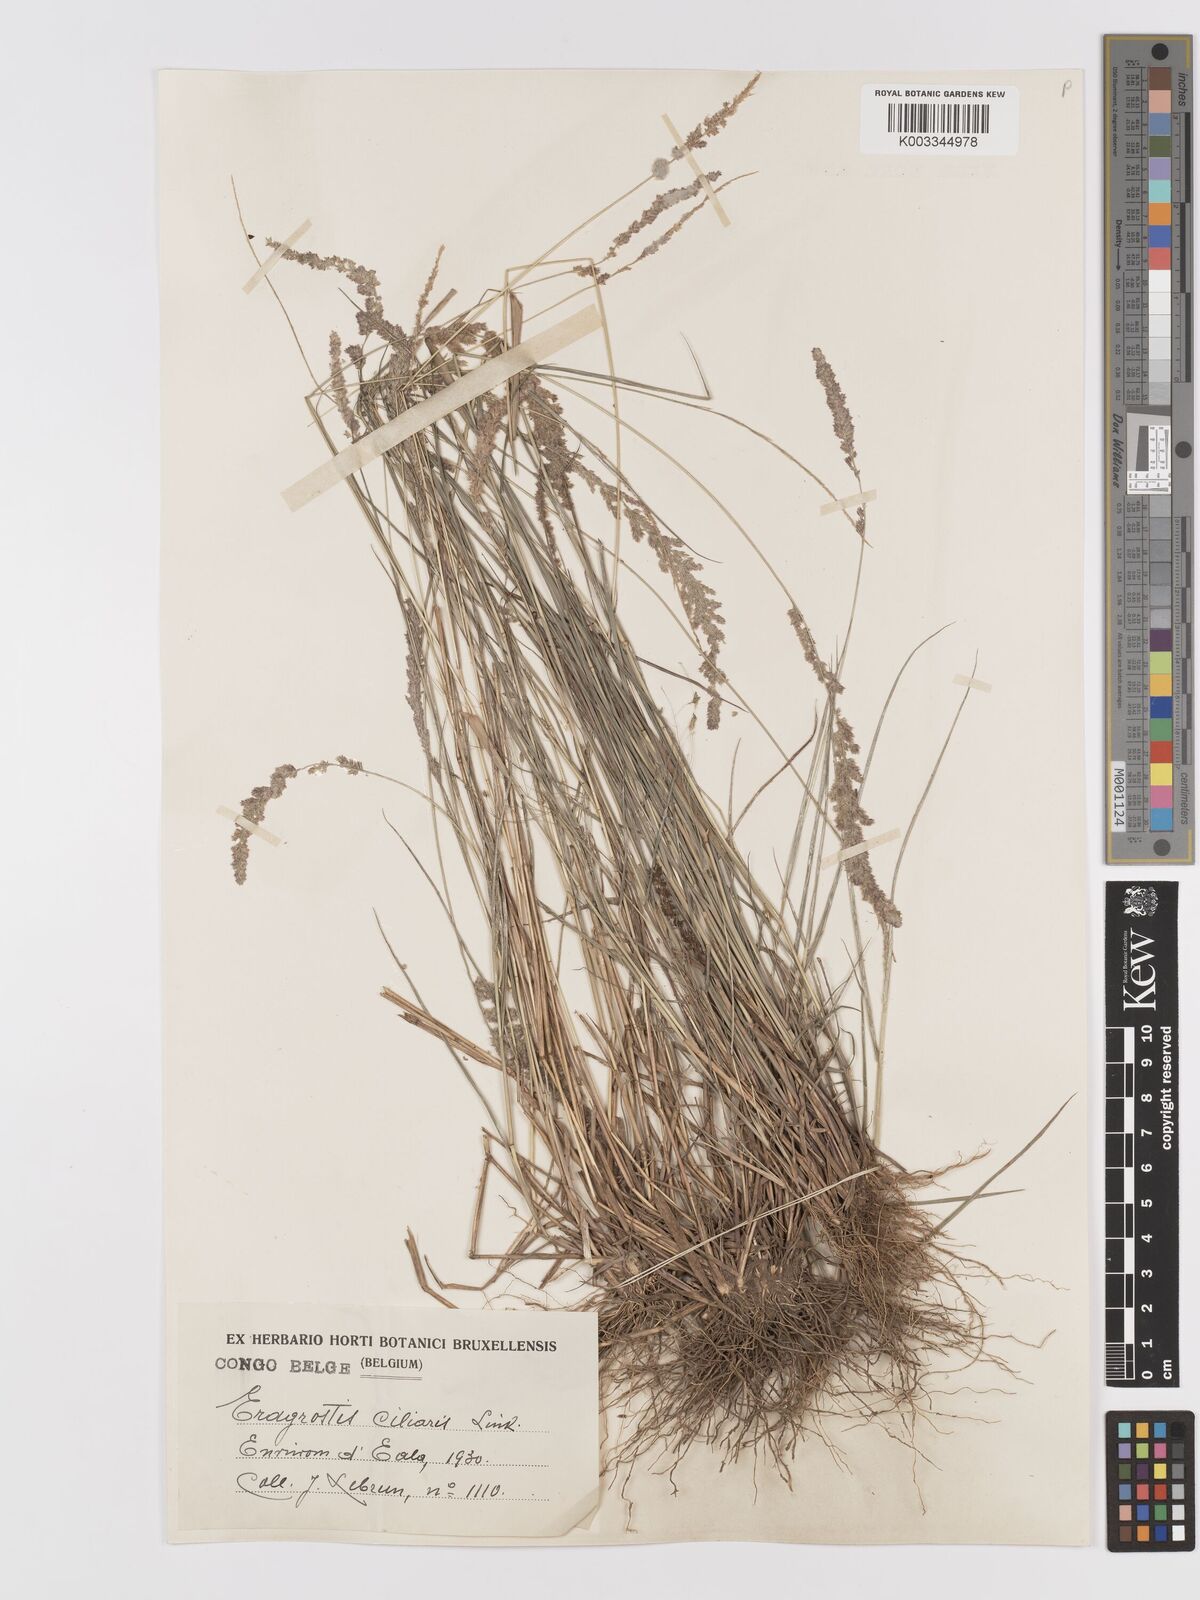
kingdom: Plantae
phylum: Tracheophyta
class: Liliopsida
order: Poales
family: Poaceae
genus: Eragrostis
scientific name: Eragrostis ciliaris
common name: Gophertail lovegrass
